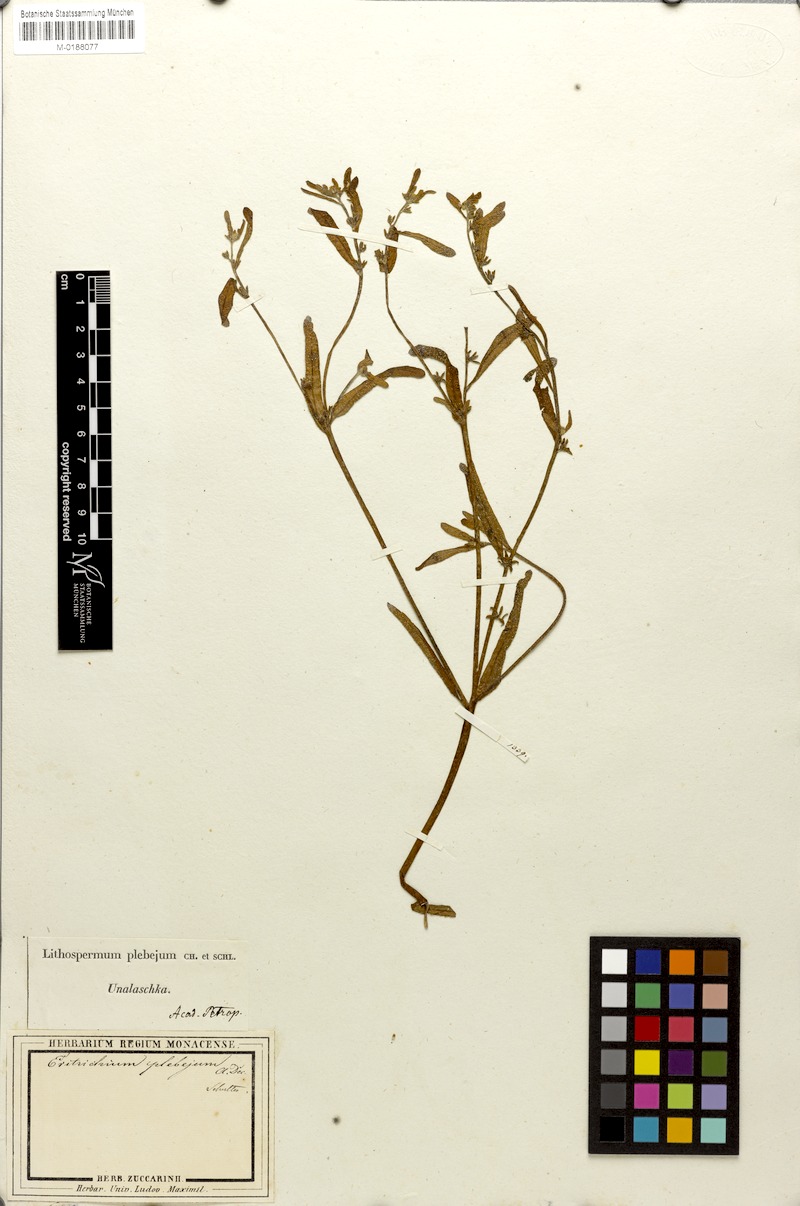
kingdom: Plantae
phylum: Tracheophyta
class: Magnoliopsida
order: Boraginales
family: Boraginaceae
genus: Plagiobothrys
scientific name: Plagiobothrys orientalis
